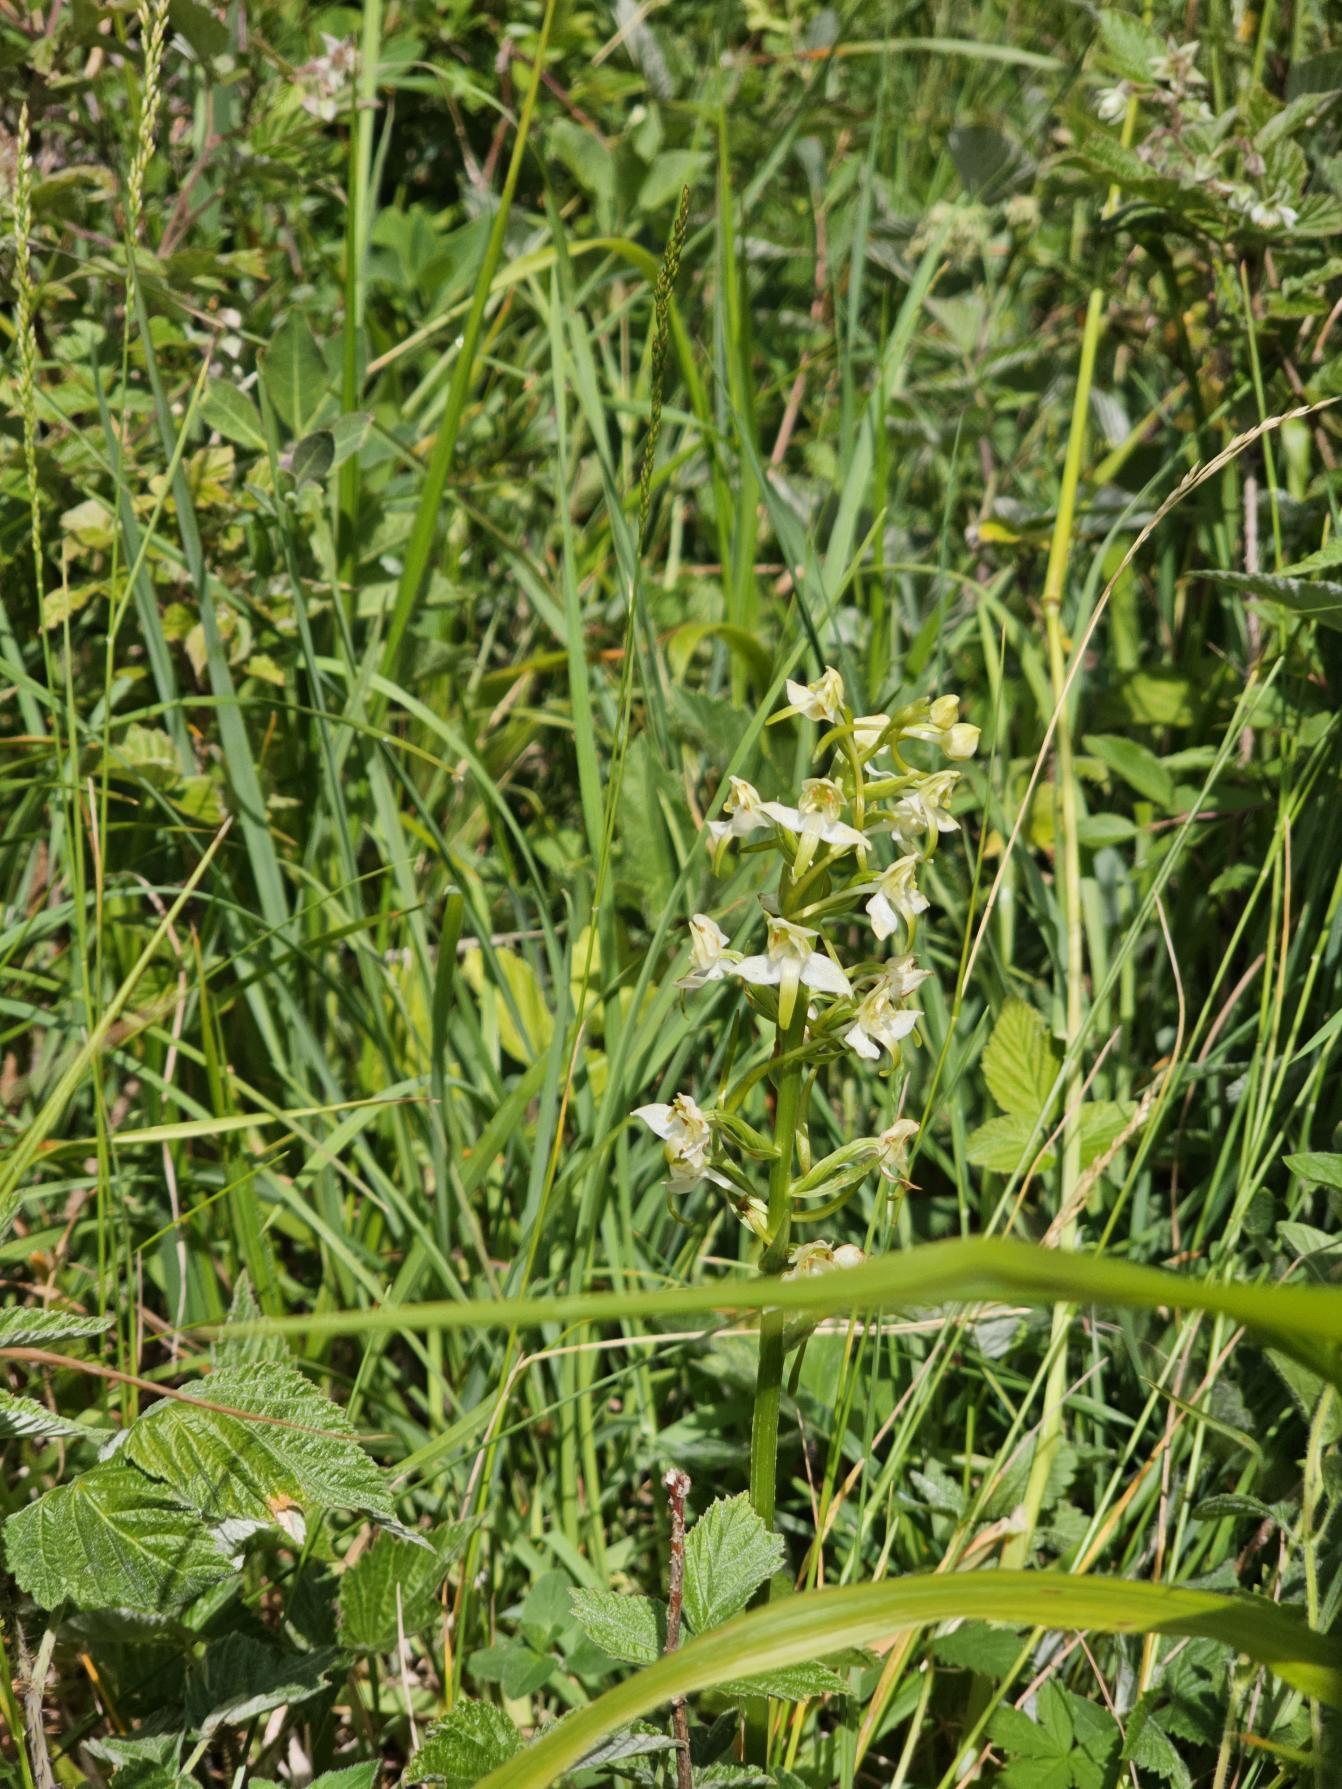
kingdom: Plantae
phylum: Tracheophyta
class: Liliopsida
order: Asparagales
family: Orchidaceae
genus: Platanthera
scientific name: Platanthera chlorantha
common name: Skov-gøgelilje
